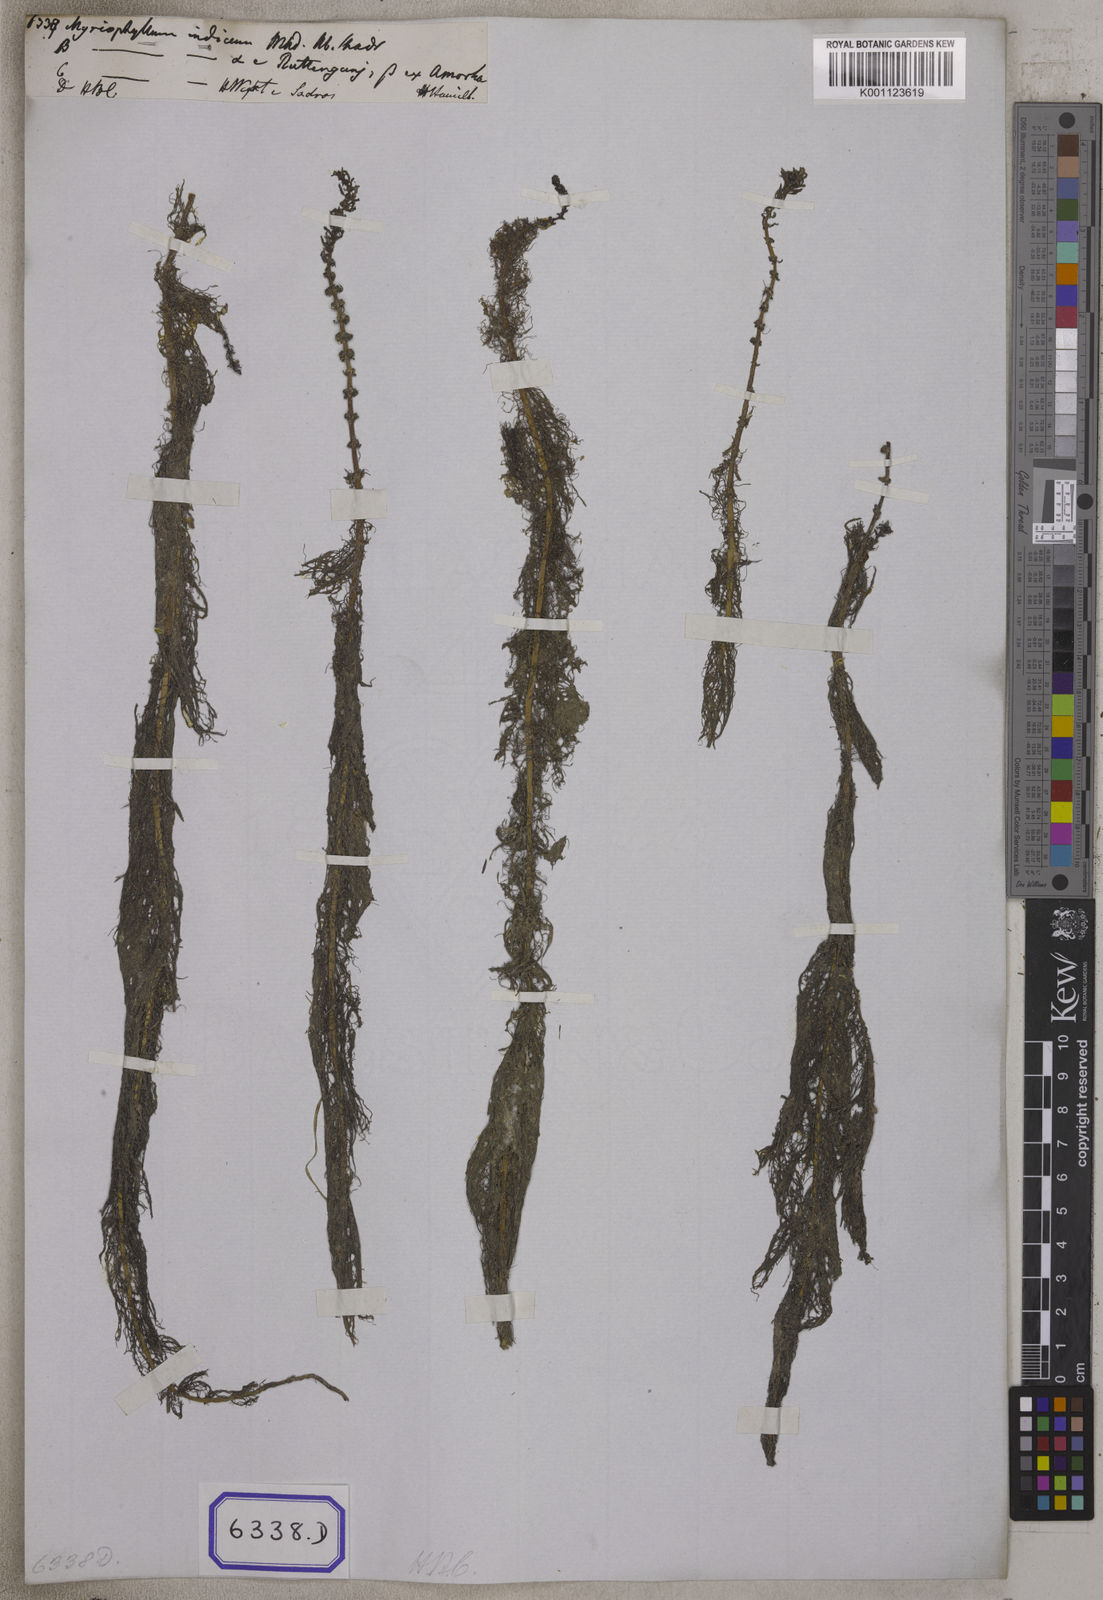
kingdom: Plantae
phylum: Tracheophyta
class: Magnoliopsida
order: Saxifragales
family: Haloragaceae
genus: Myriophyllum
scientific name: Myriophyllum indicum
